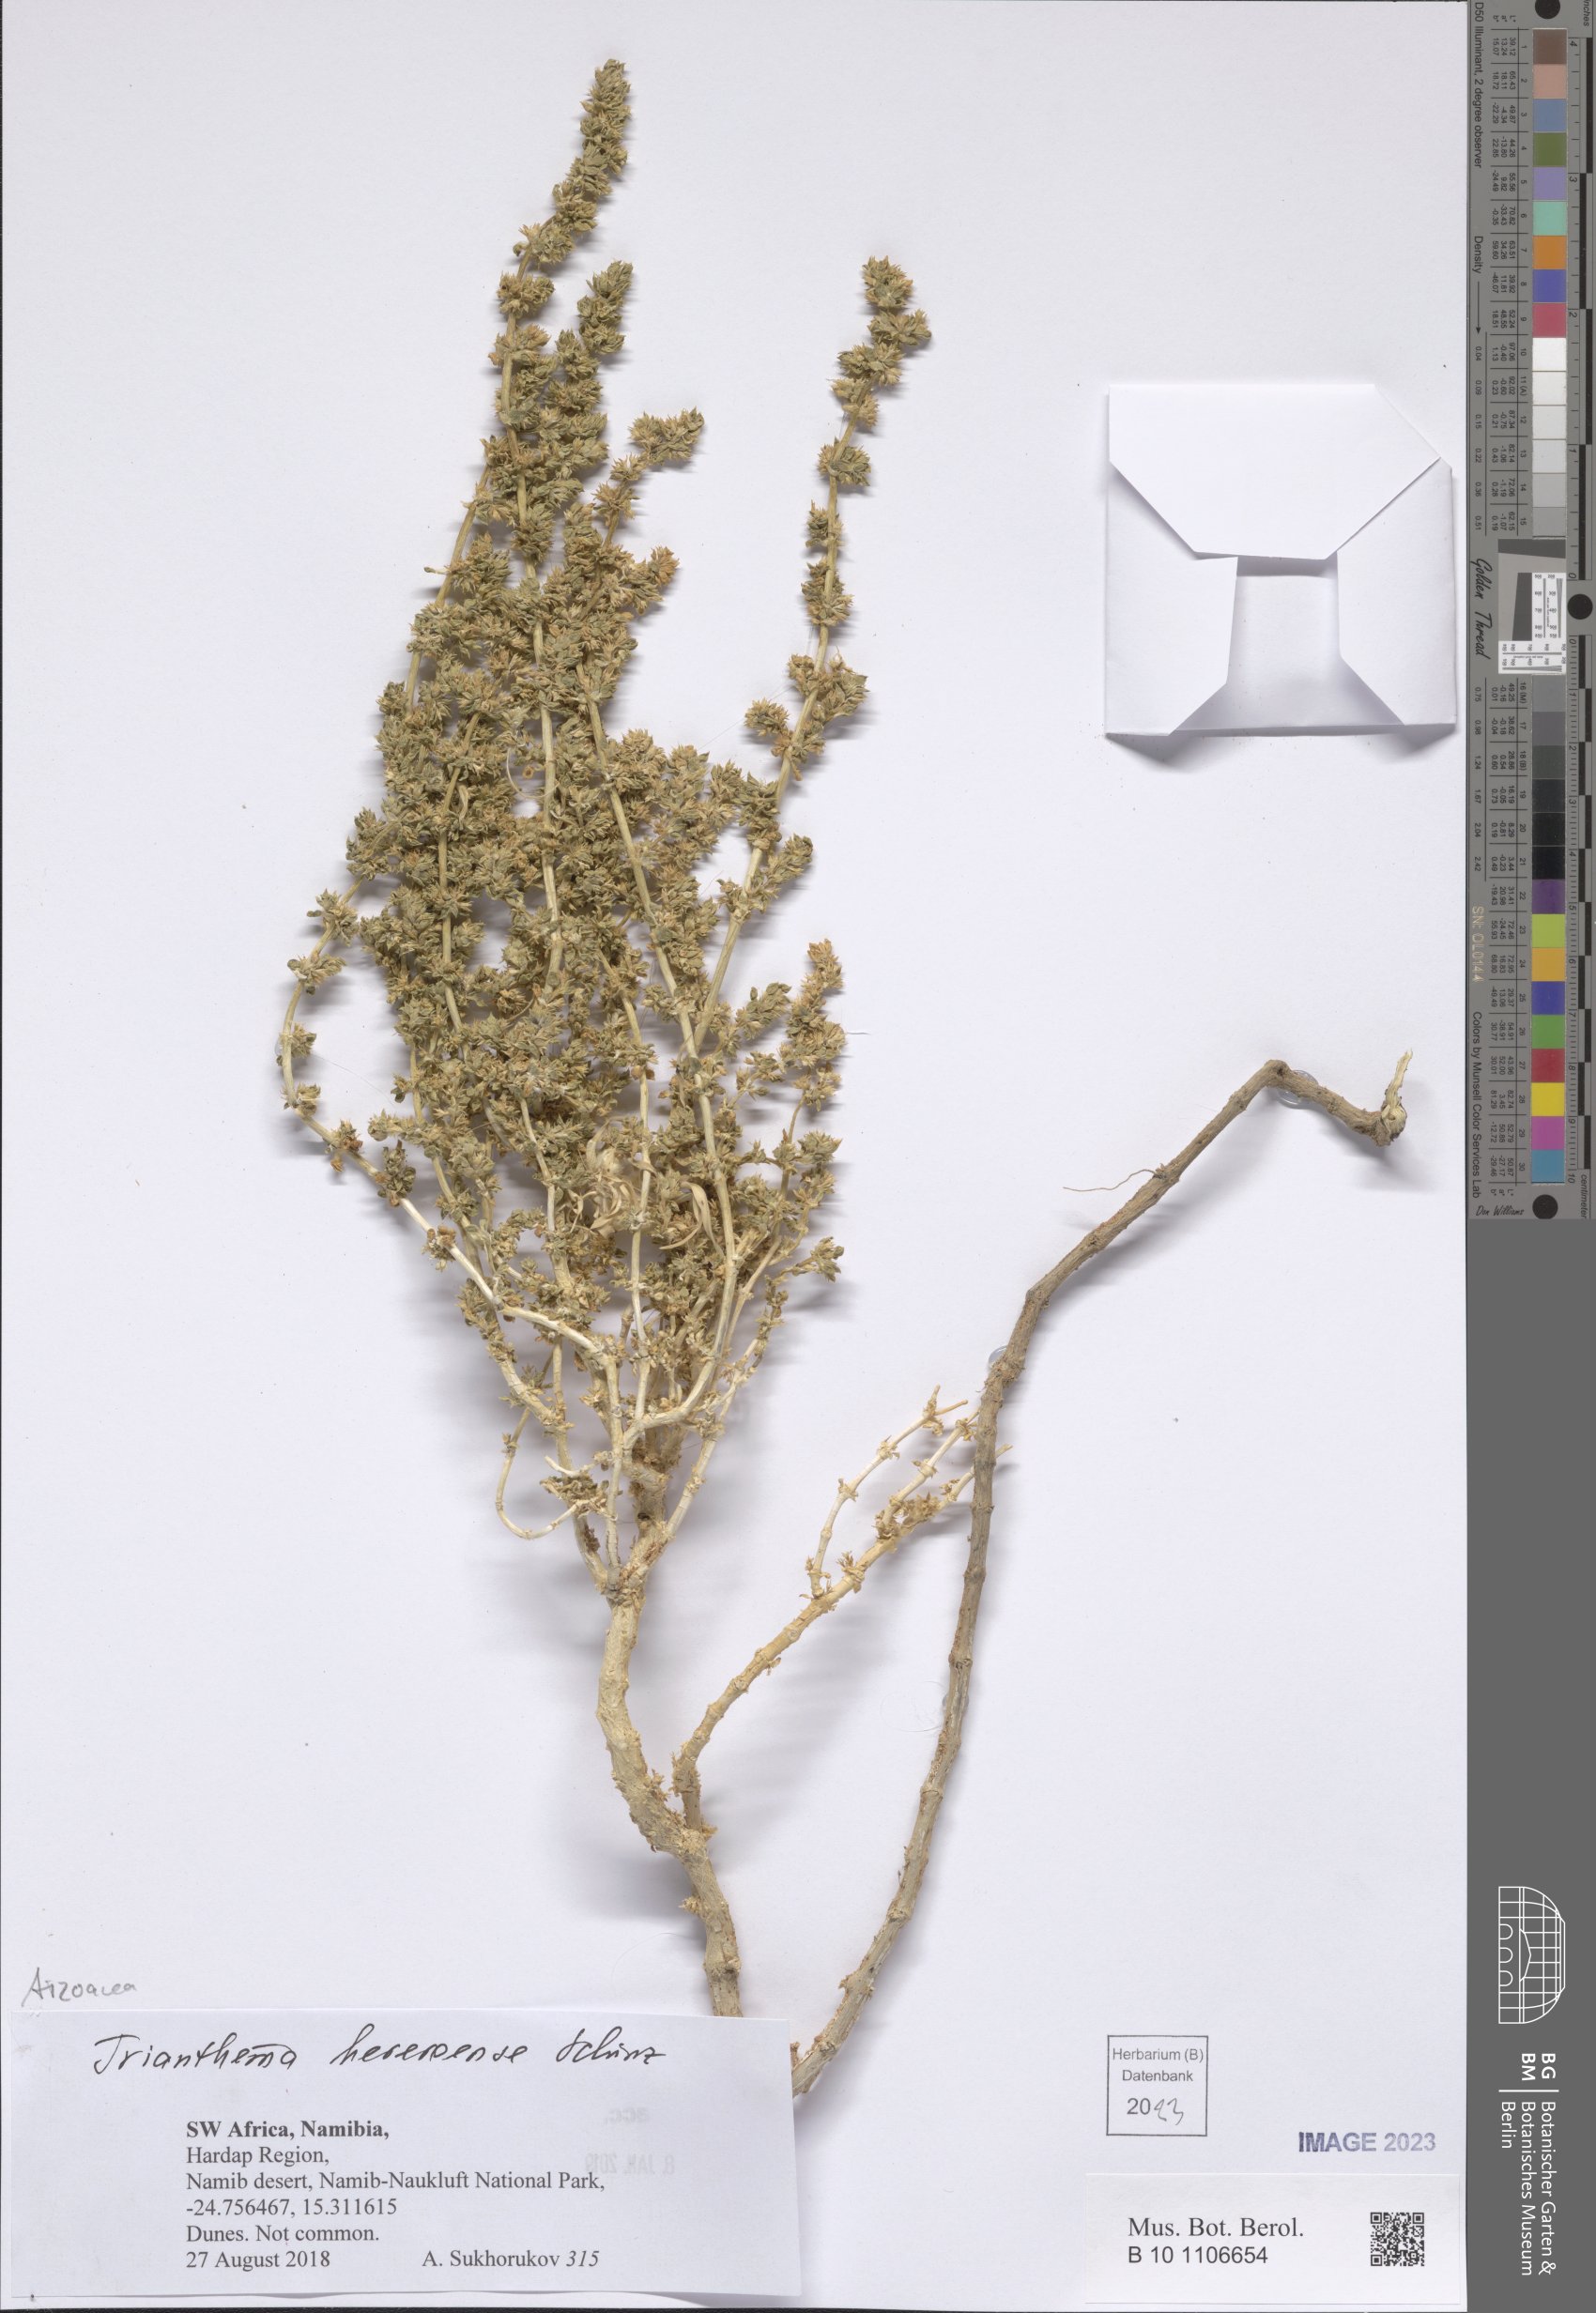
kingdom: Plantae
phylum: Tracheophyta
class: Magnoliopsida
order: Caryophyllales
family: Aizoaceae
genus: Trianthema
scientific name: Trianthema hereroense
